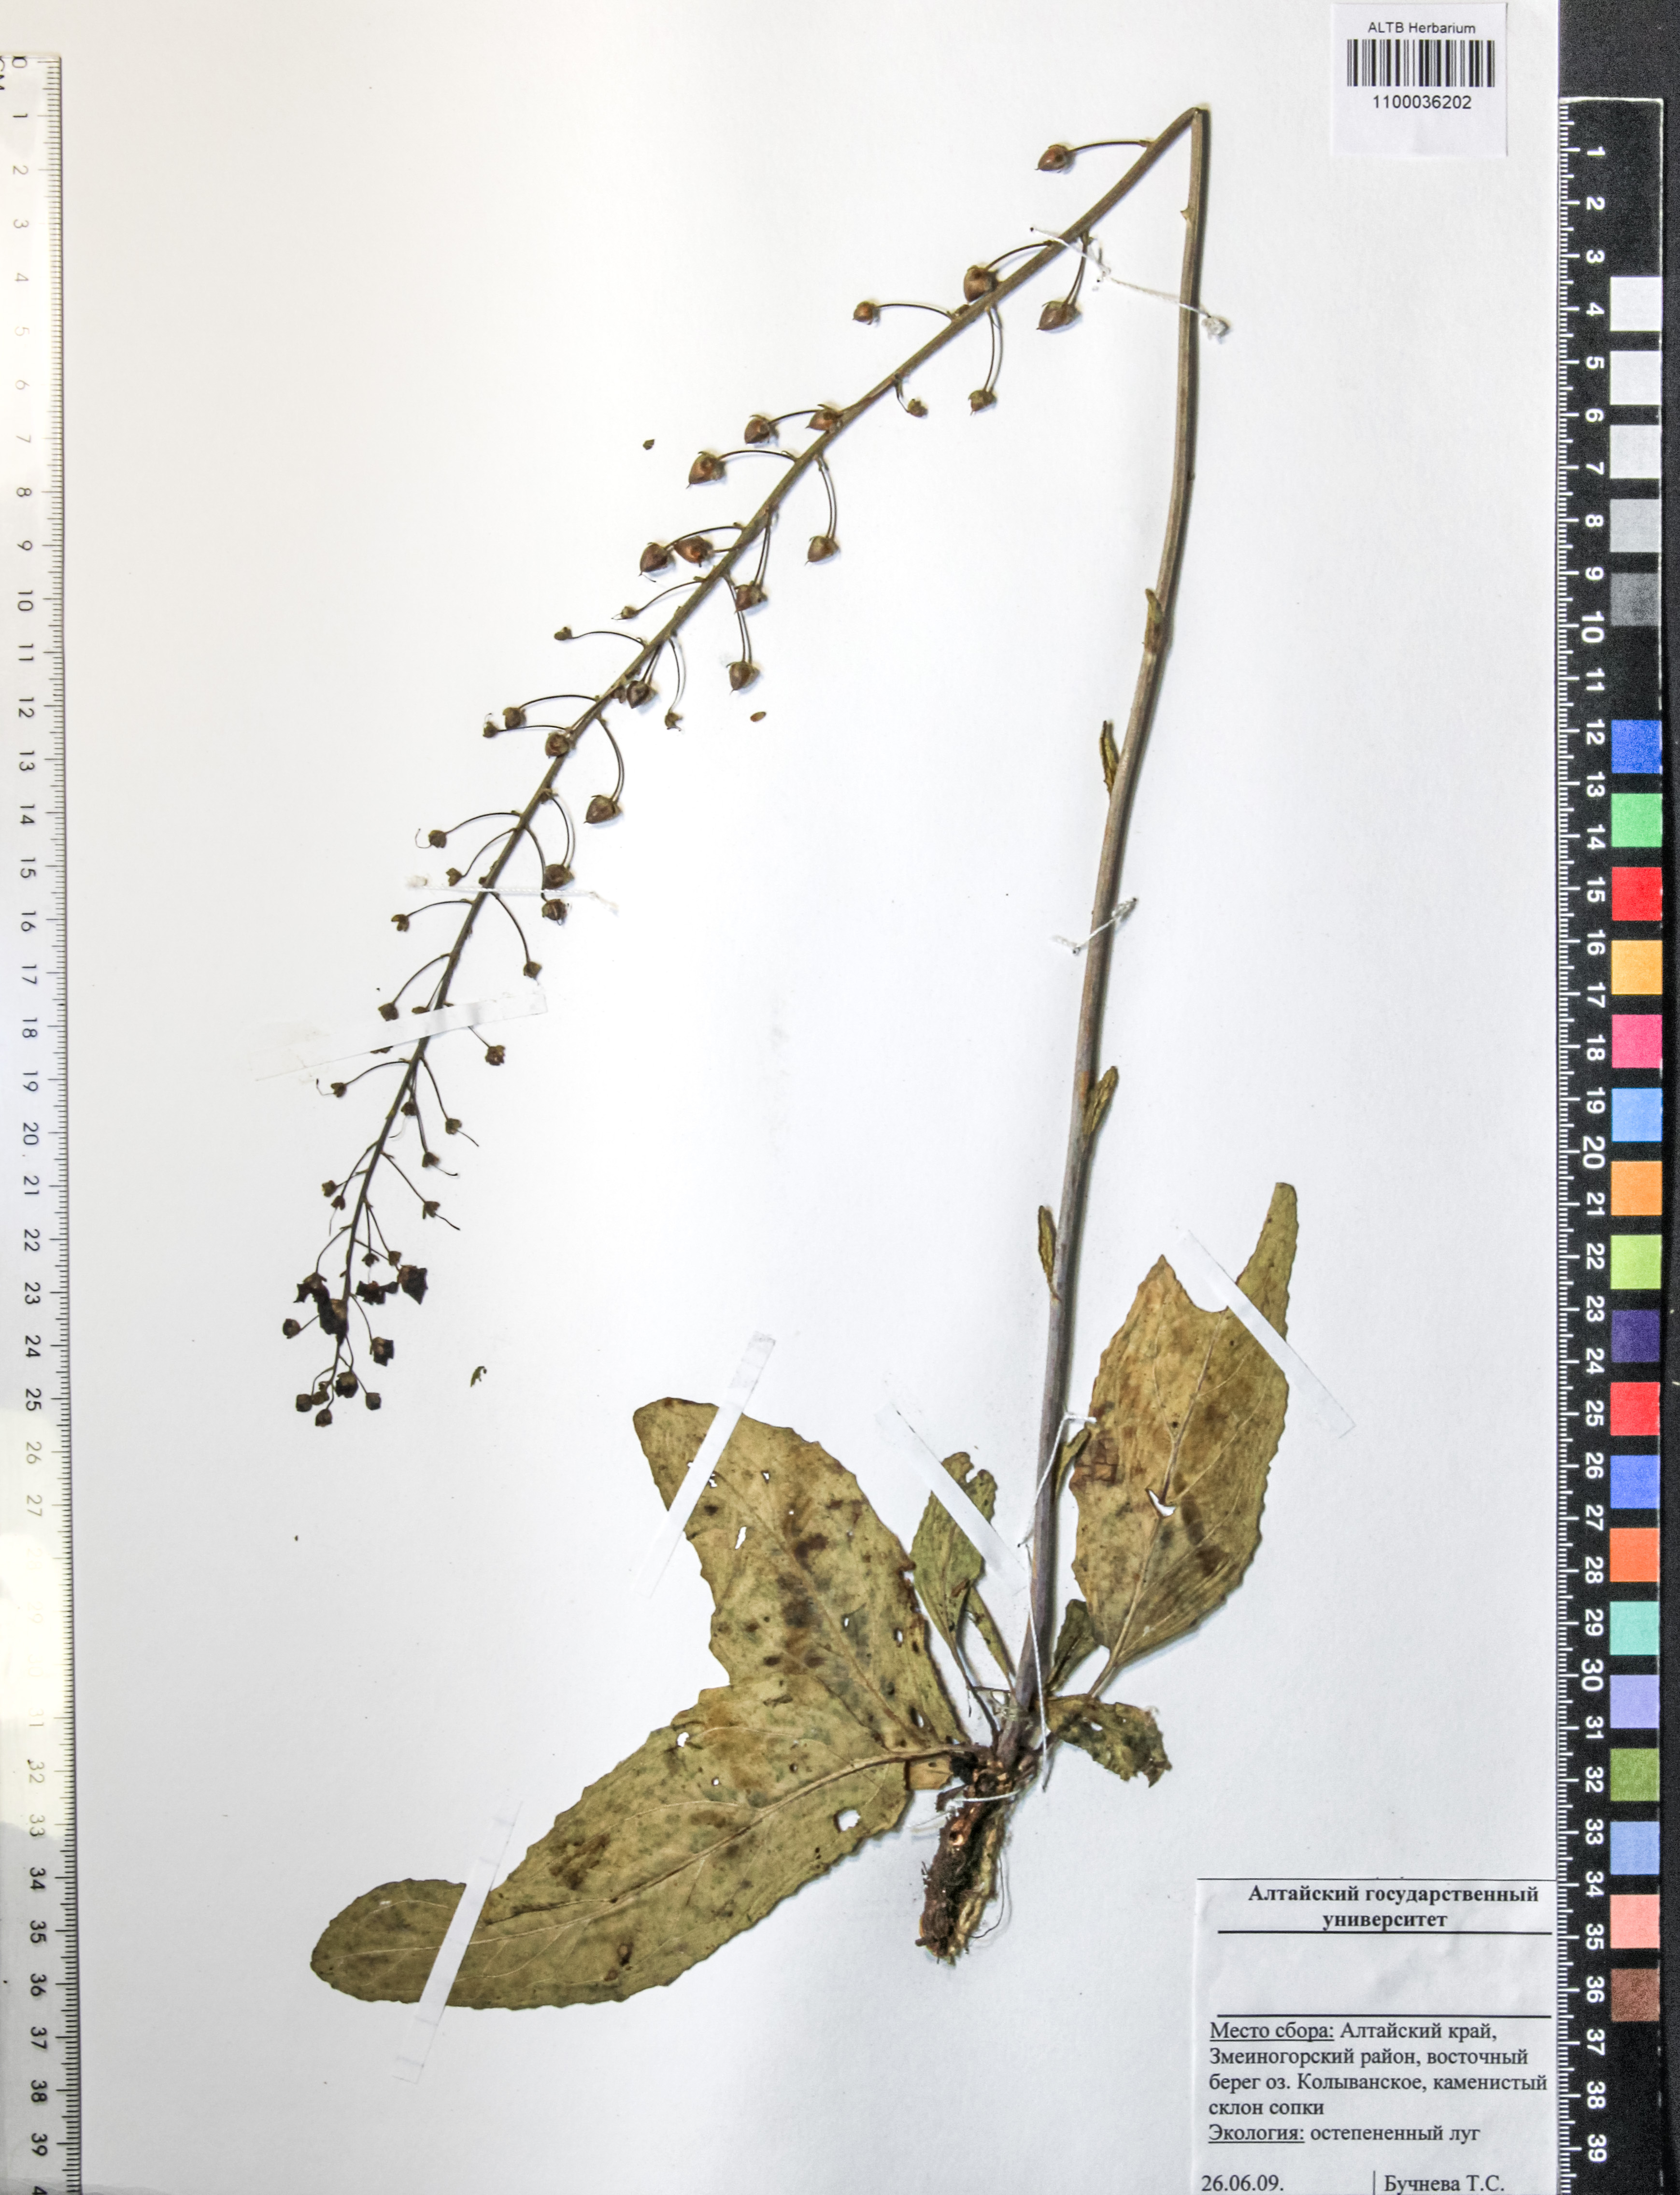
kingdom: Plantae
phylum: Tracheophyta
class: Magnoliopsida
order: Lamiales
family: Scrophulariaceae
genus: Verbascum
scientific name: Verbascum phlomoides
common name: Orange mullein
